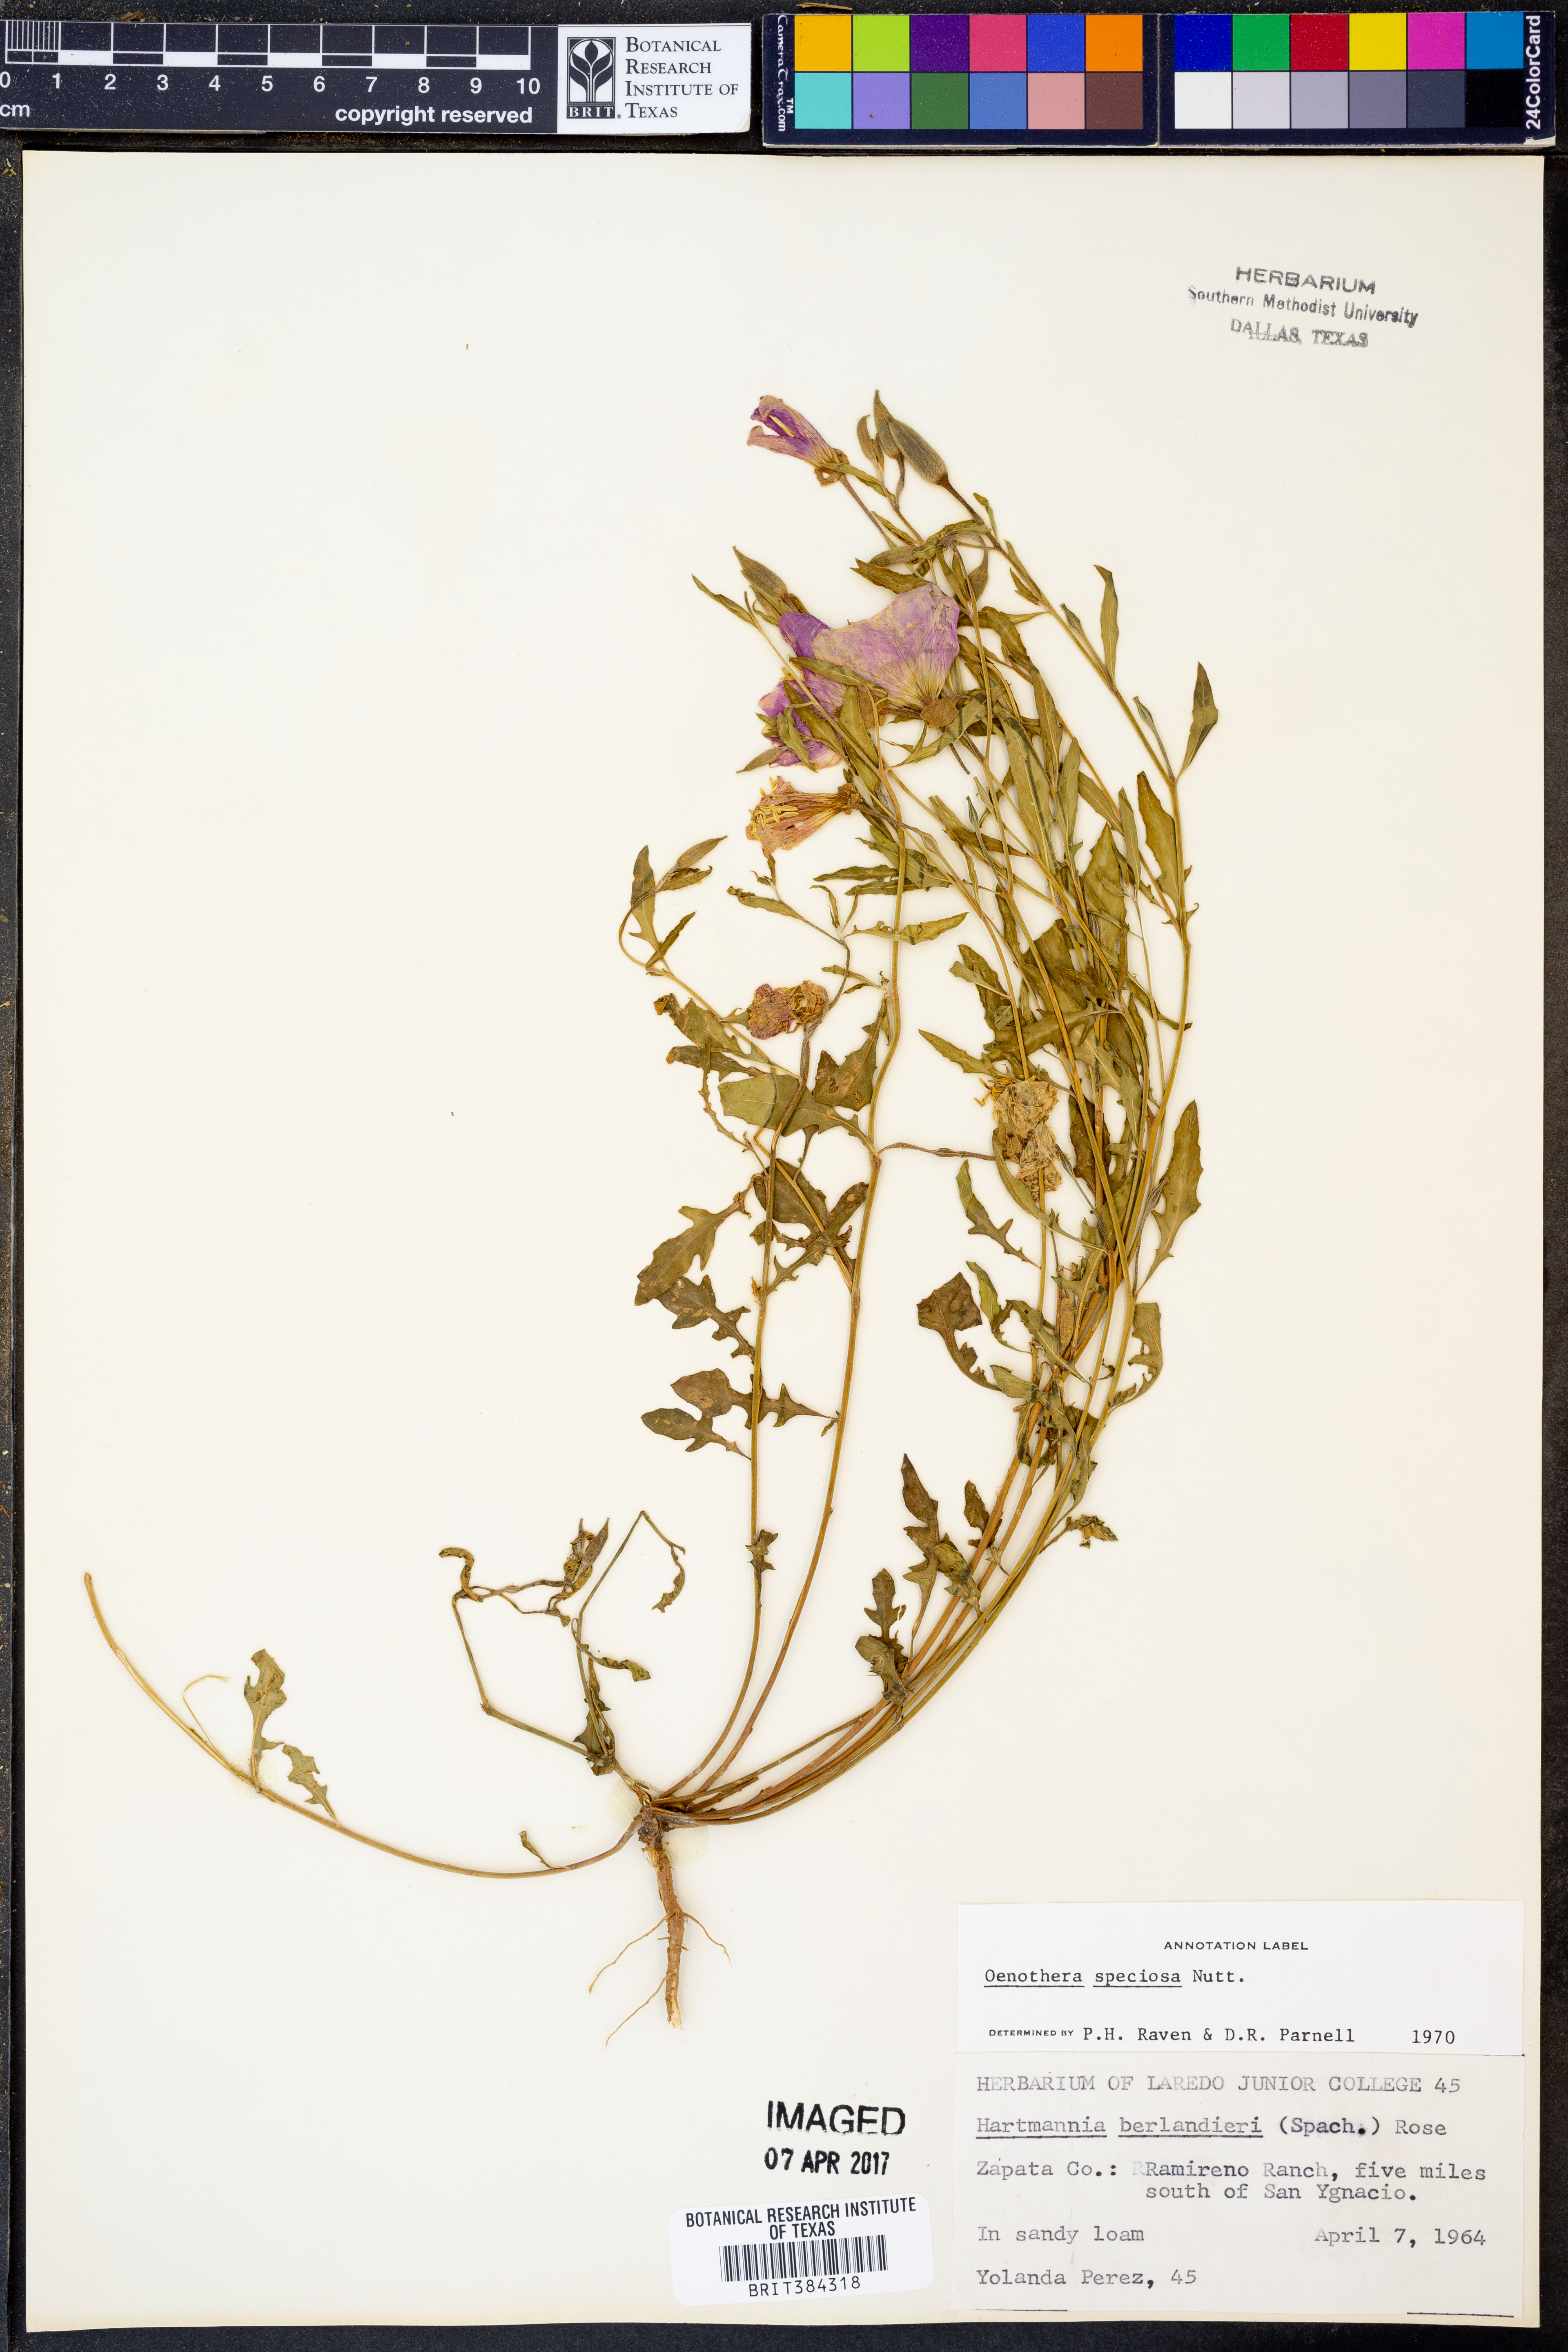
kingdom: Plantae
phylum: Tracheophyta
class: Magnoliopsida
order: Myrtales
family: Onagraceae
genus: Oenothera
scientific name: Oenothera speciosa
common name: White evening-primrose
